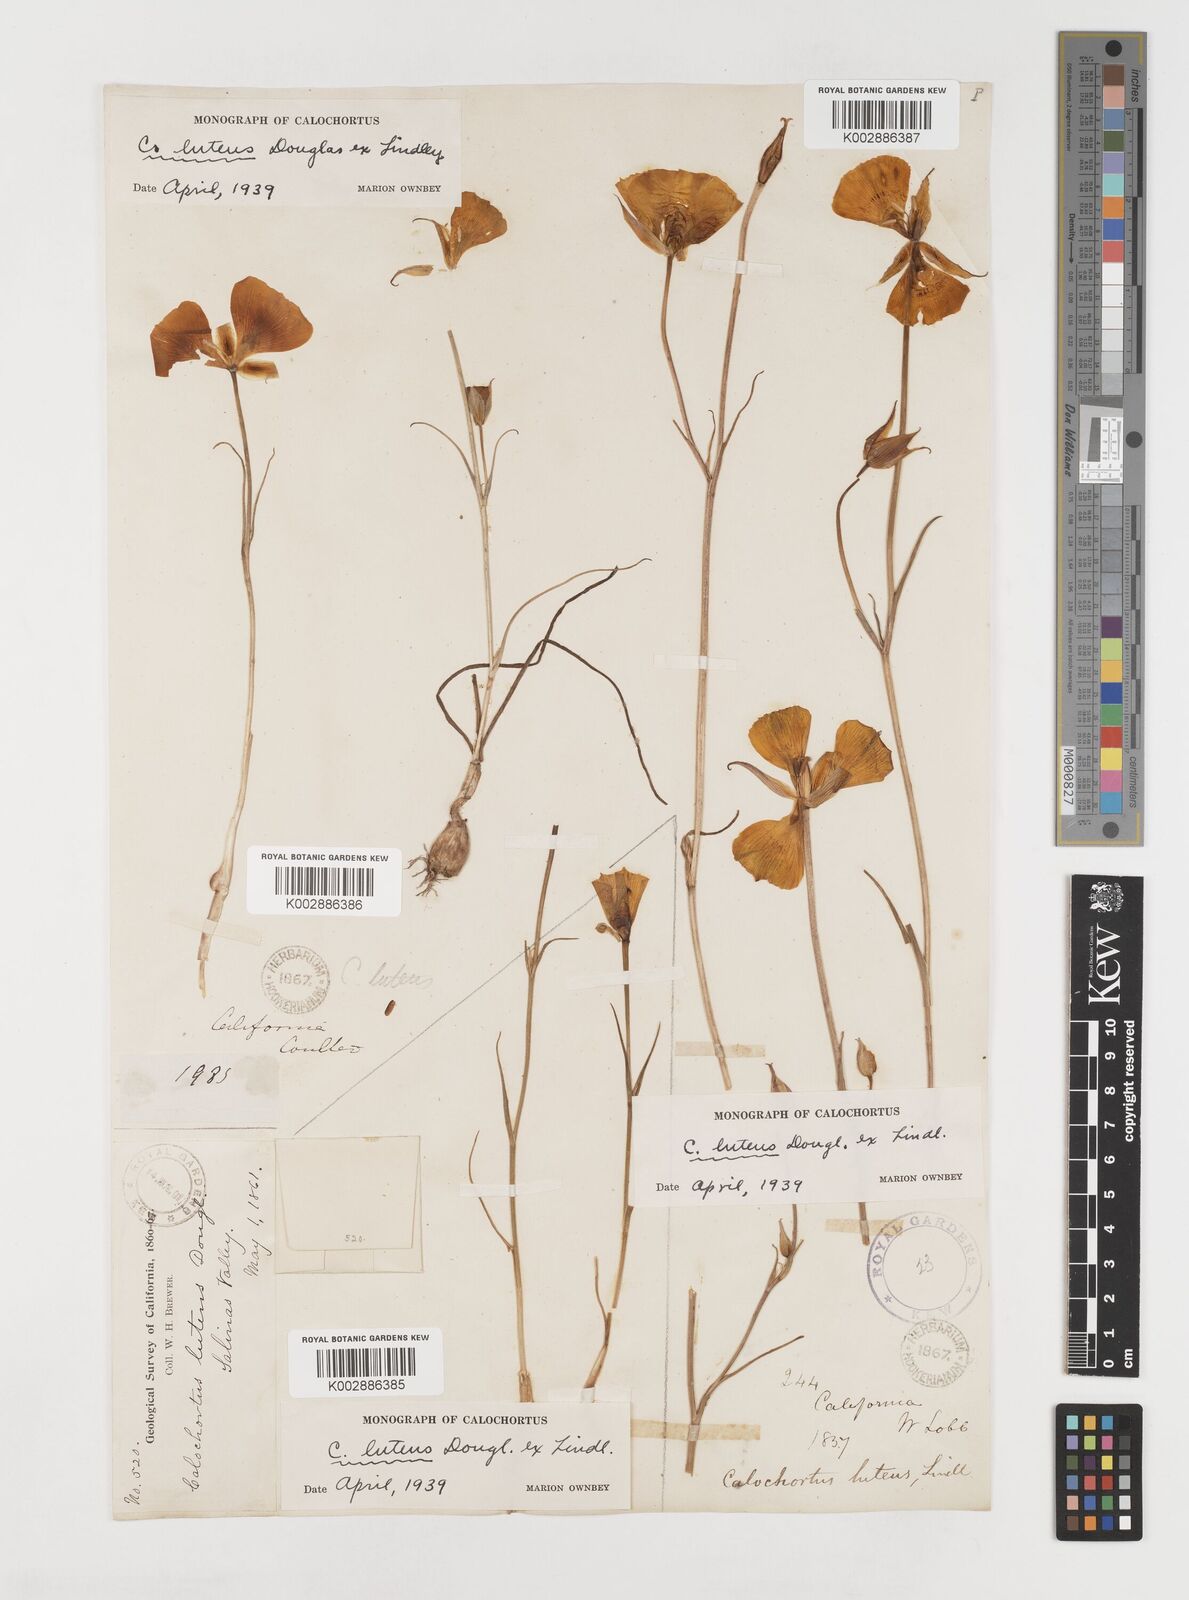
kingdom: Plantae
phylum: Tracheophyta
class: Liliopsida
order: Liliales
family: Liliaceae
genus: Calochortus
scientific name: Calochortus nuttallii
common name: Sego-lily
